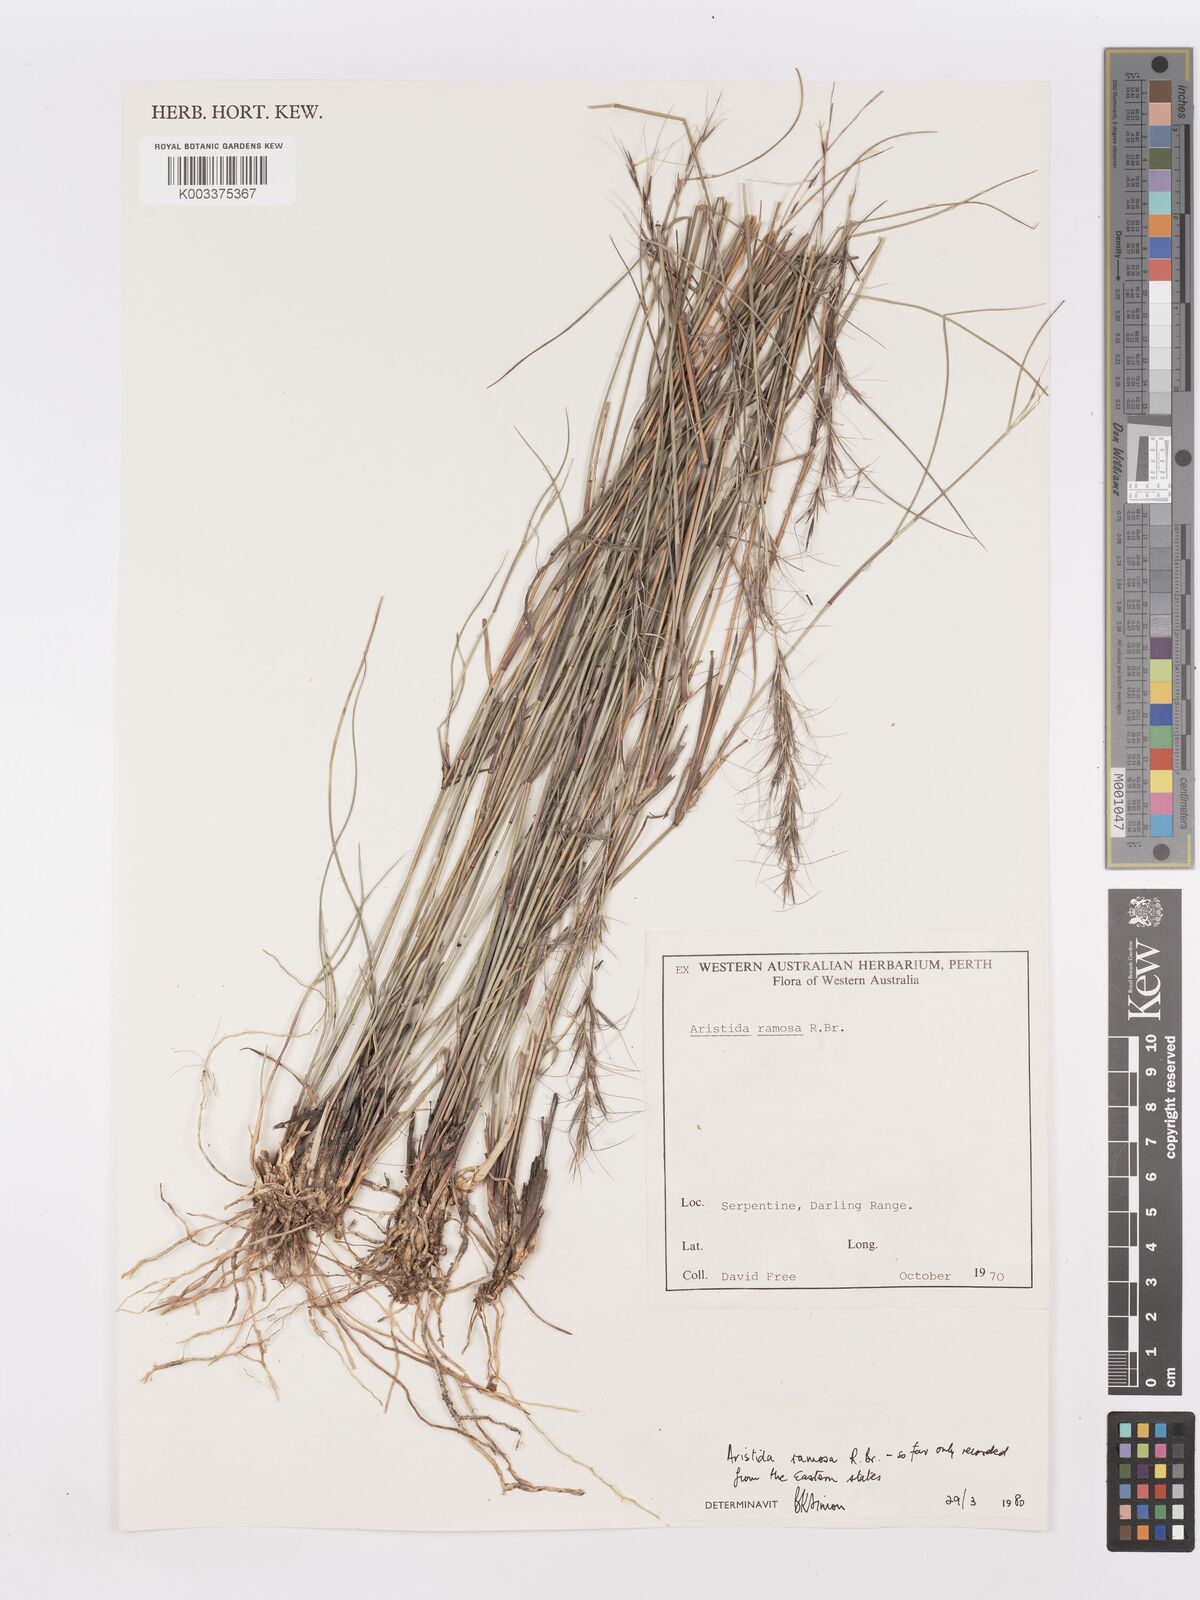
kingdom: Plantae
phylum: Tracheophyta
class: Liliopsida
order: Poales
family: Poaceae
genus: Aristida
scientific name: Aristida ramosa
